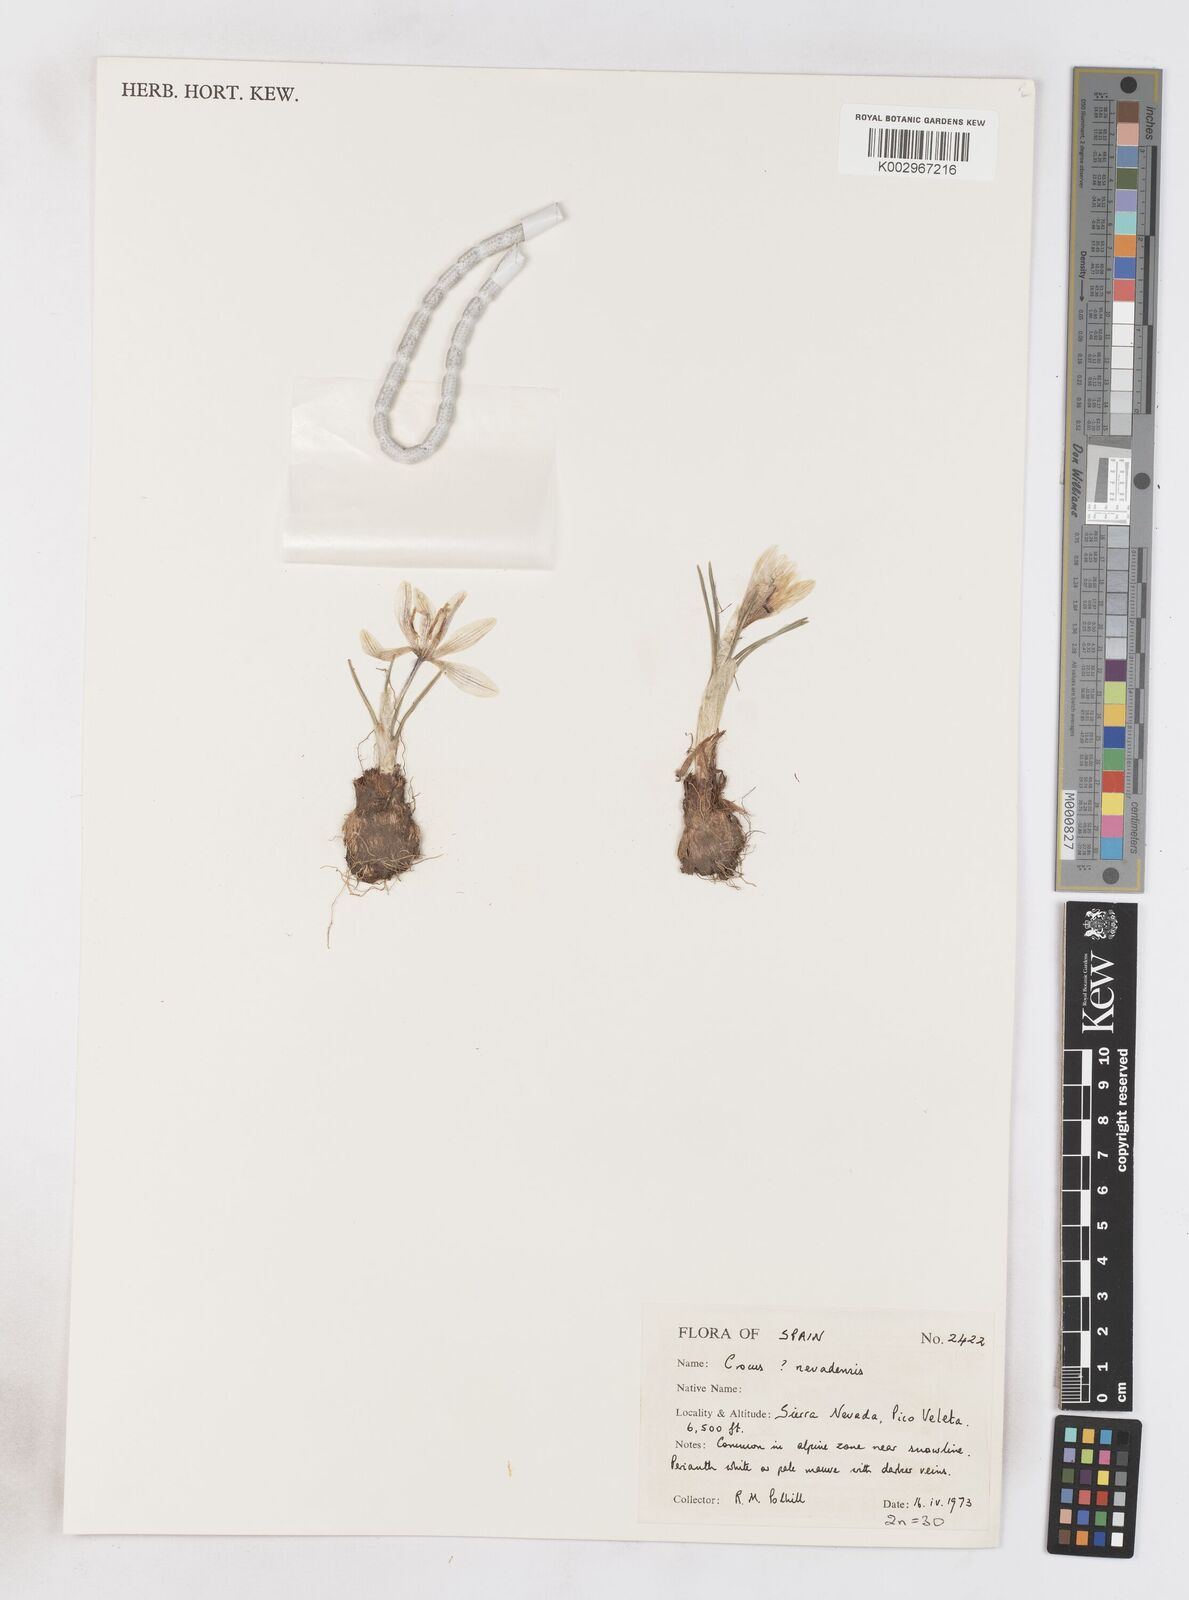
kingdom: Plantae
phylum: Tracheophyta
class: Liliopsida
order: Asparagales
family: Iridaceae
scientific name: Iridaceae
